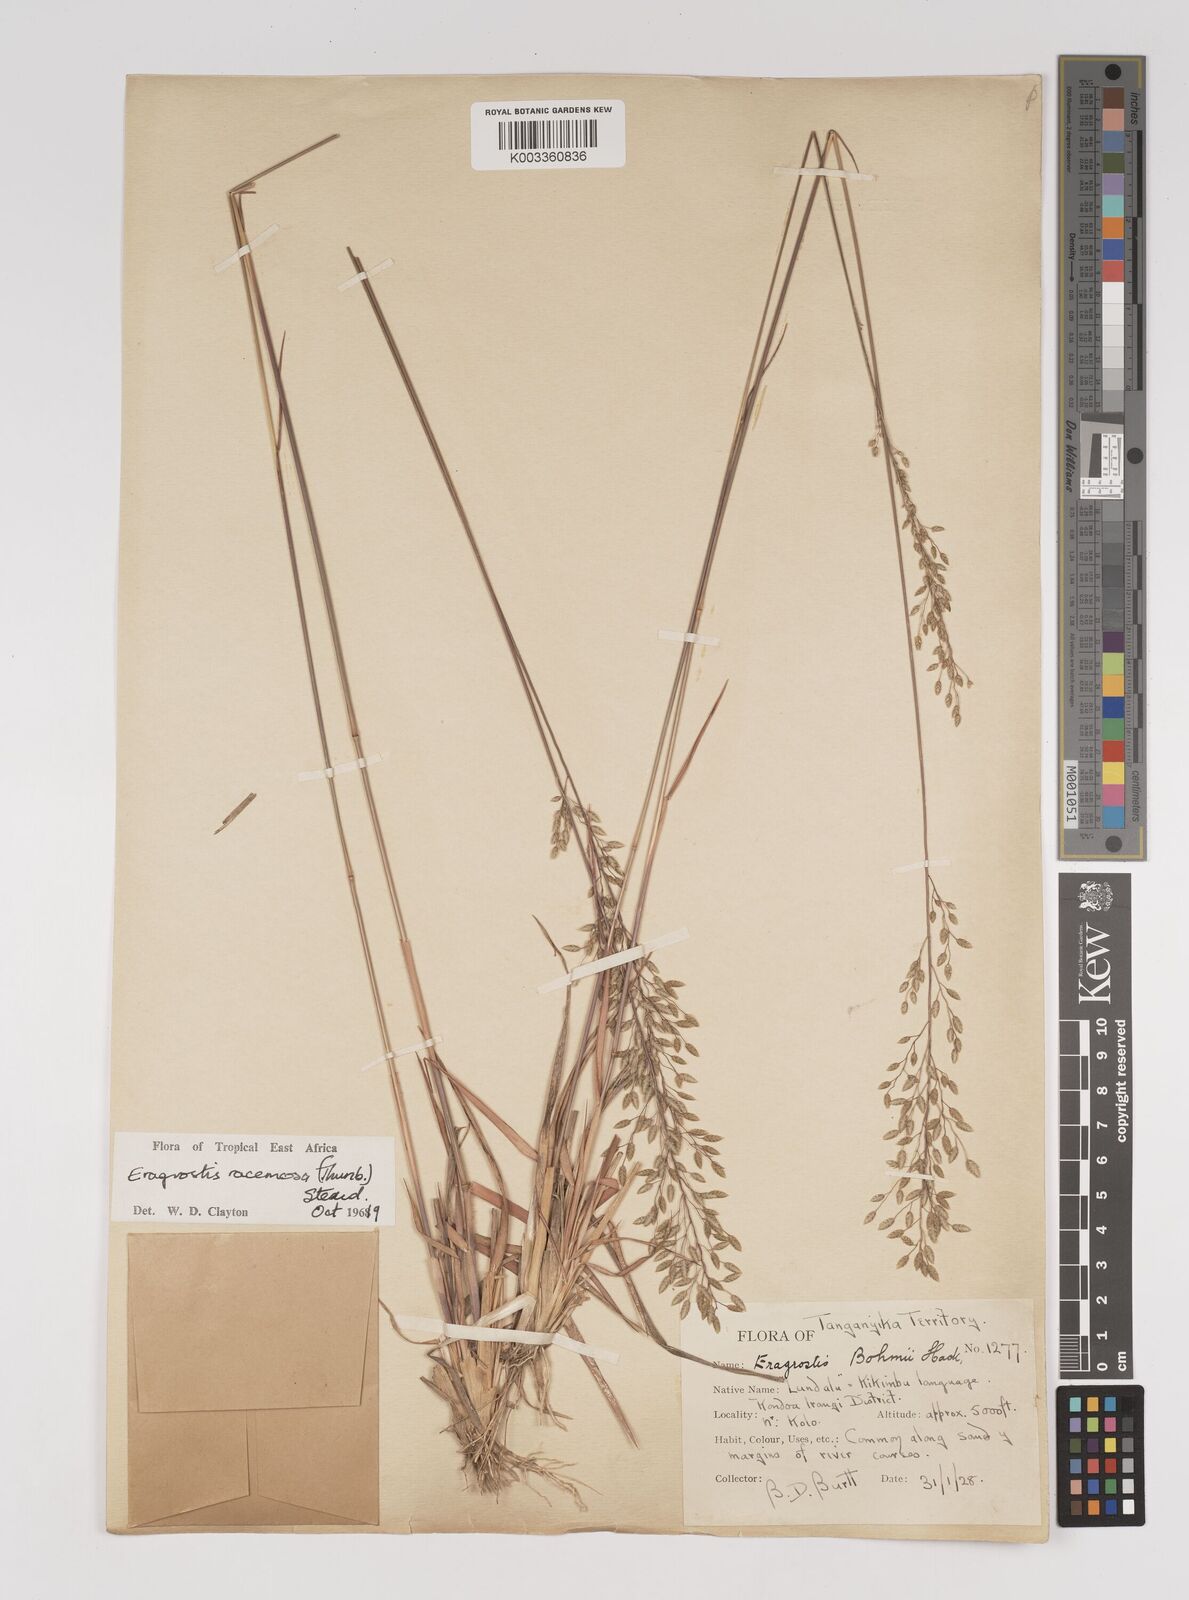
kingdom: Plantae
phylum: Tracheophyta
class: Liliopsida
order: Poales
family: Poaceae
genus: Eragrostis
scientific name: Eragrostis racemosa
